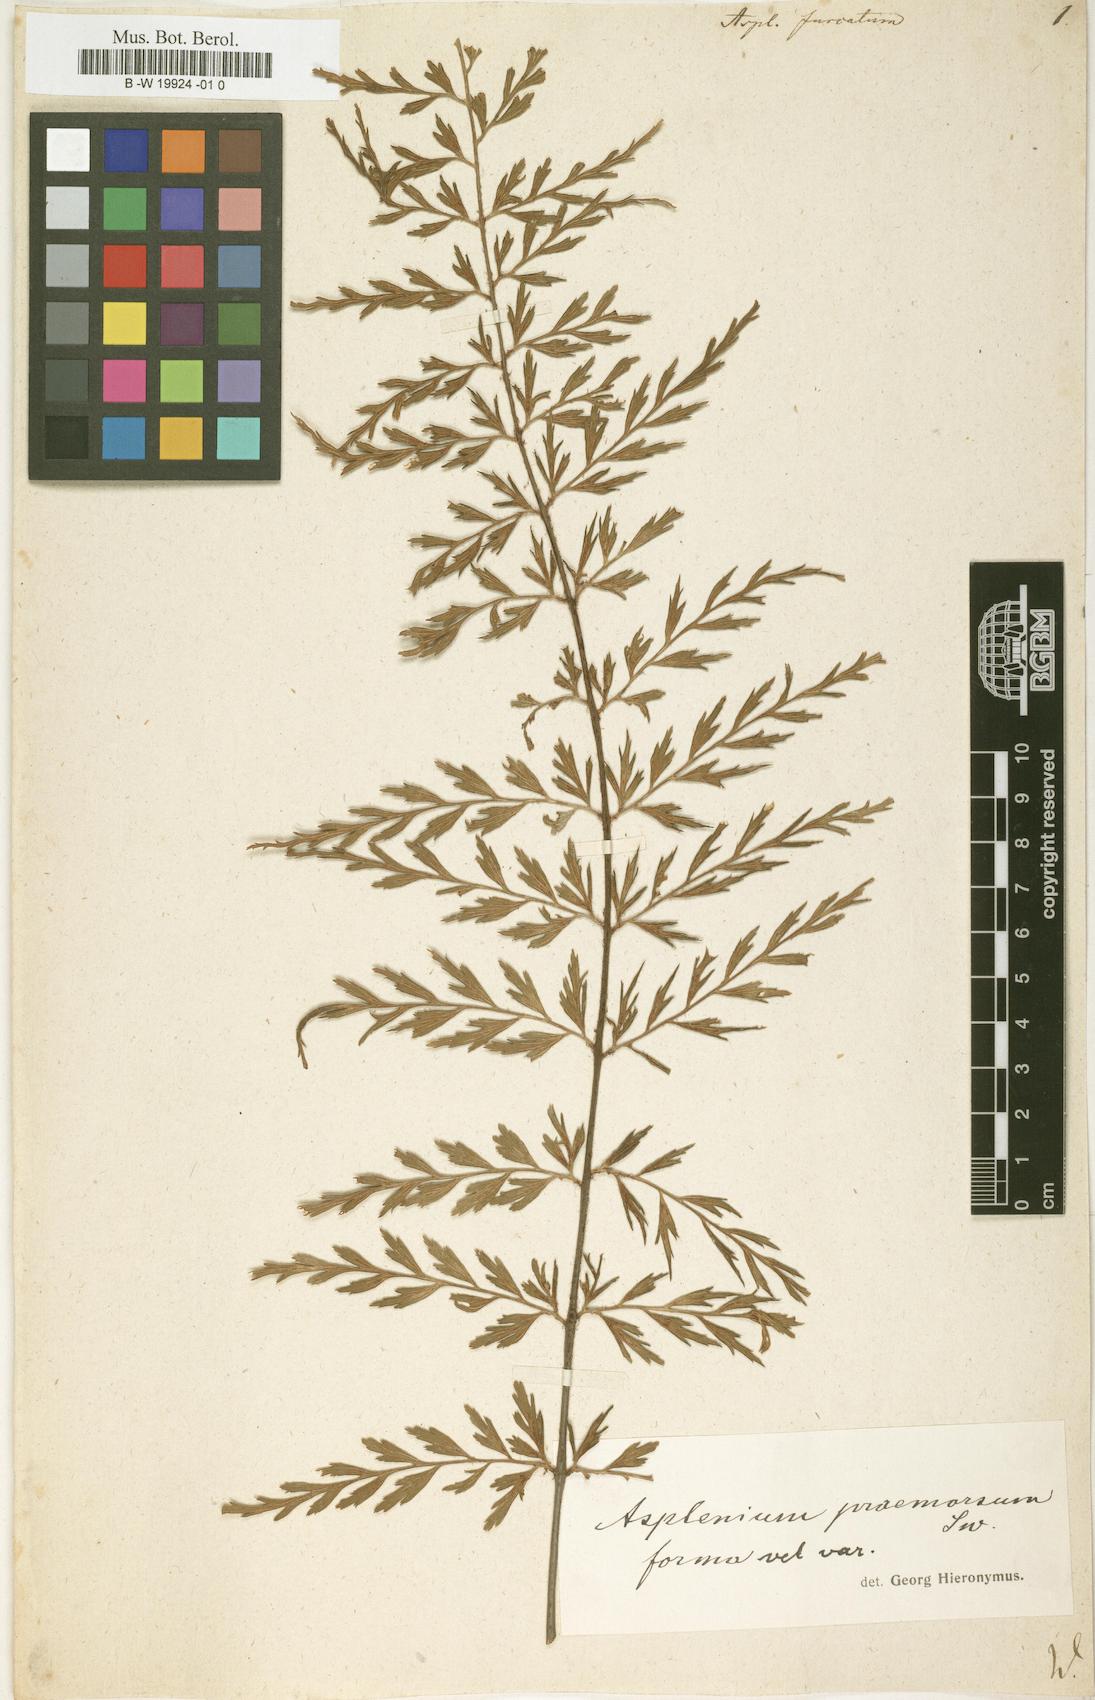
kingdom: Plantae
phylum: Tracheophyta
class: Polypodiopsida
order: Polypodiales
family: Aspleniaceae
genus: Asplenium
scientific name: Asplenium furcatum
